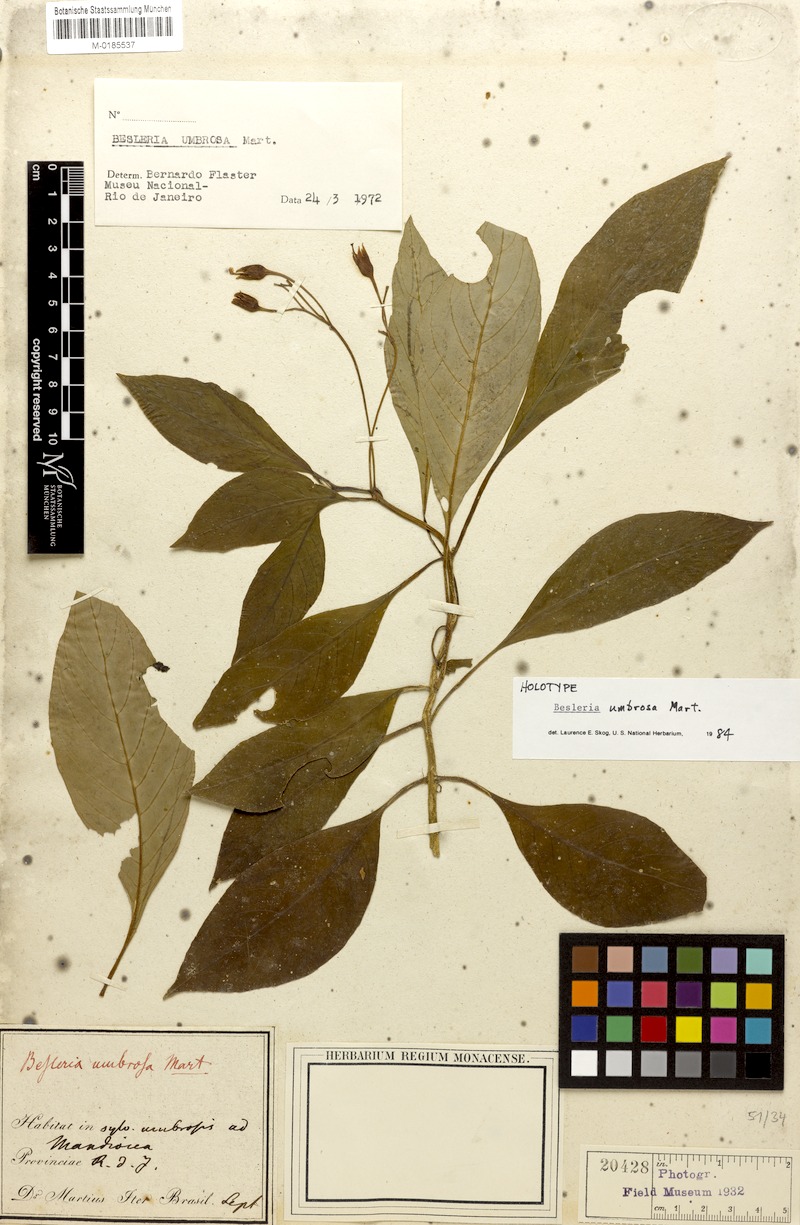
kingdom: Plantae
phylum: Tracheophyta
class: Magnoliopsida
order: Lamiales
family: Gesneriaceae
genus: Besleria
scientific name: Besleria umbrosa
